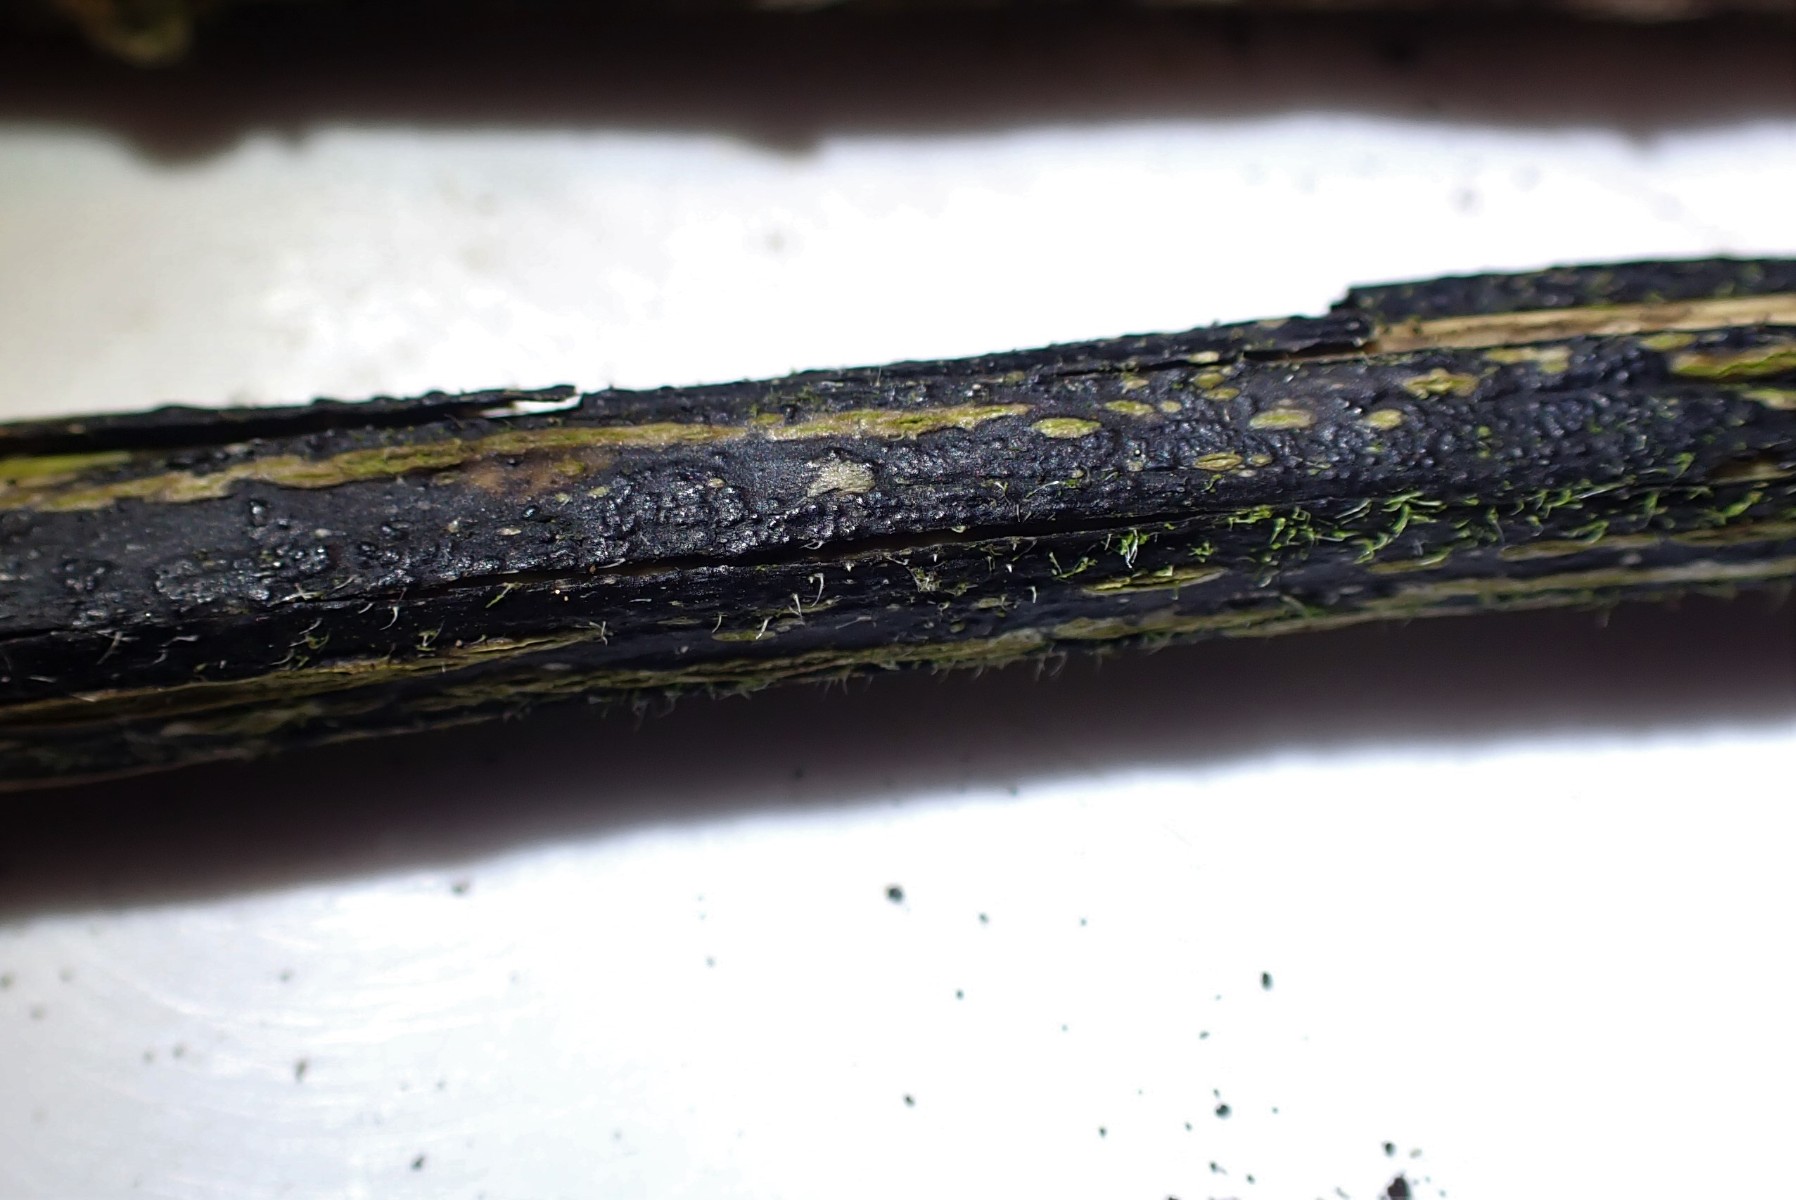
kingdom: Fungi
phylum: Ascomycota
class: Sordariomycetes
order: Diaporthales
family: Diaporthaceae
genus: Diaporthopsis
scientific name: Diaporthopsis urticae
